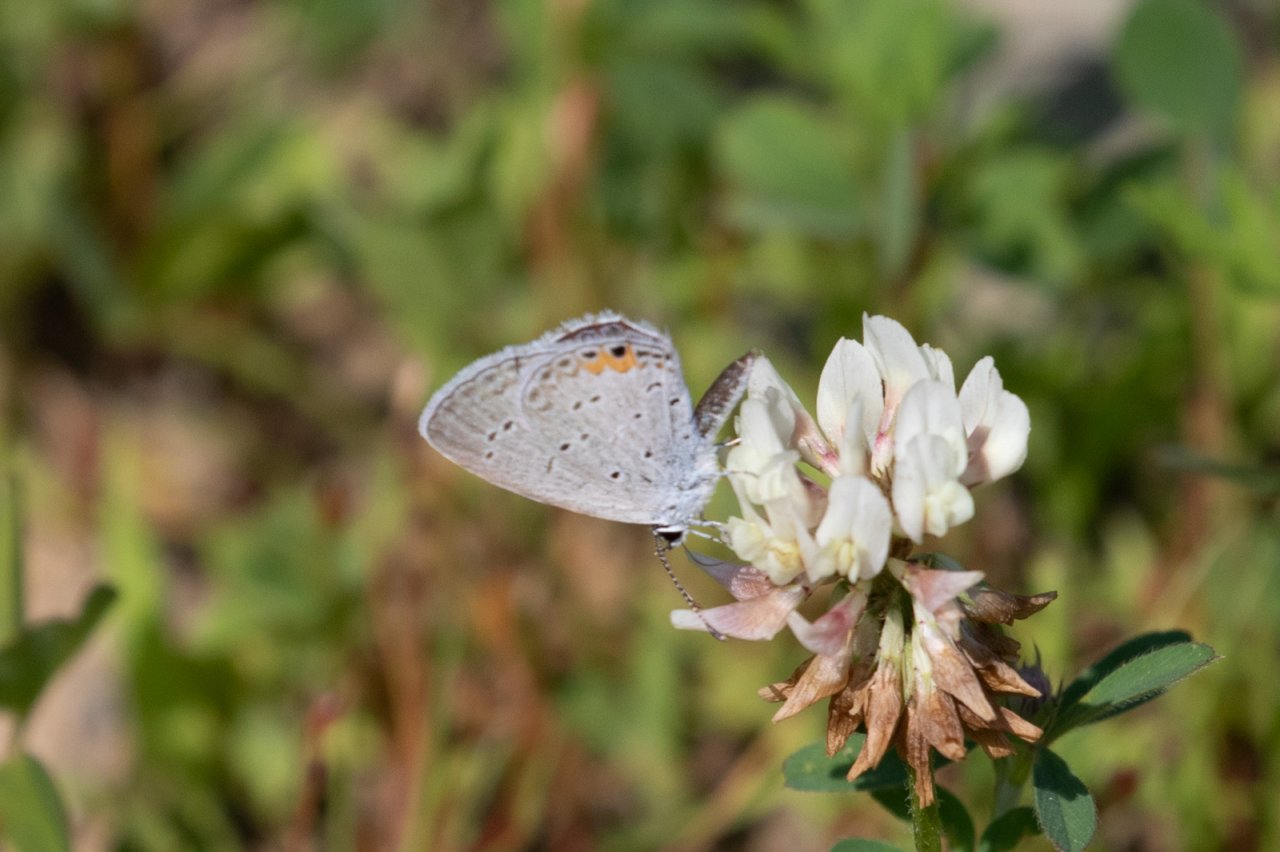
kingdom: Animalia
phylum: Arthropoda
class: Insecta
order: Lepidoptera
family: Lycaenidae
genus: Elkalyce
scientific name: Elkalyce comyntas
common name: Eastern Tailed-Blue
